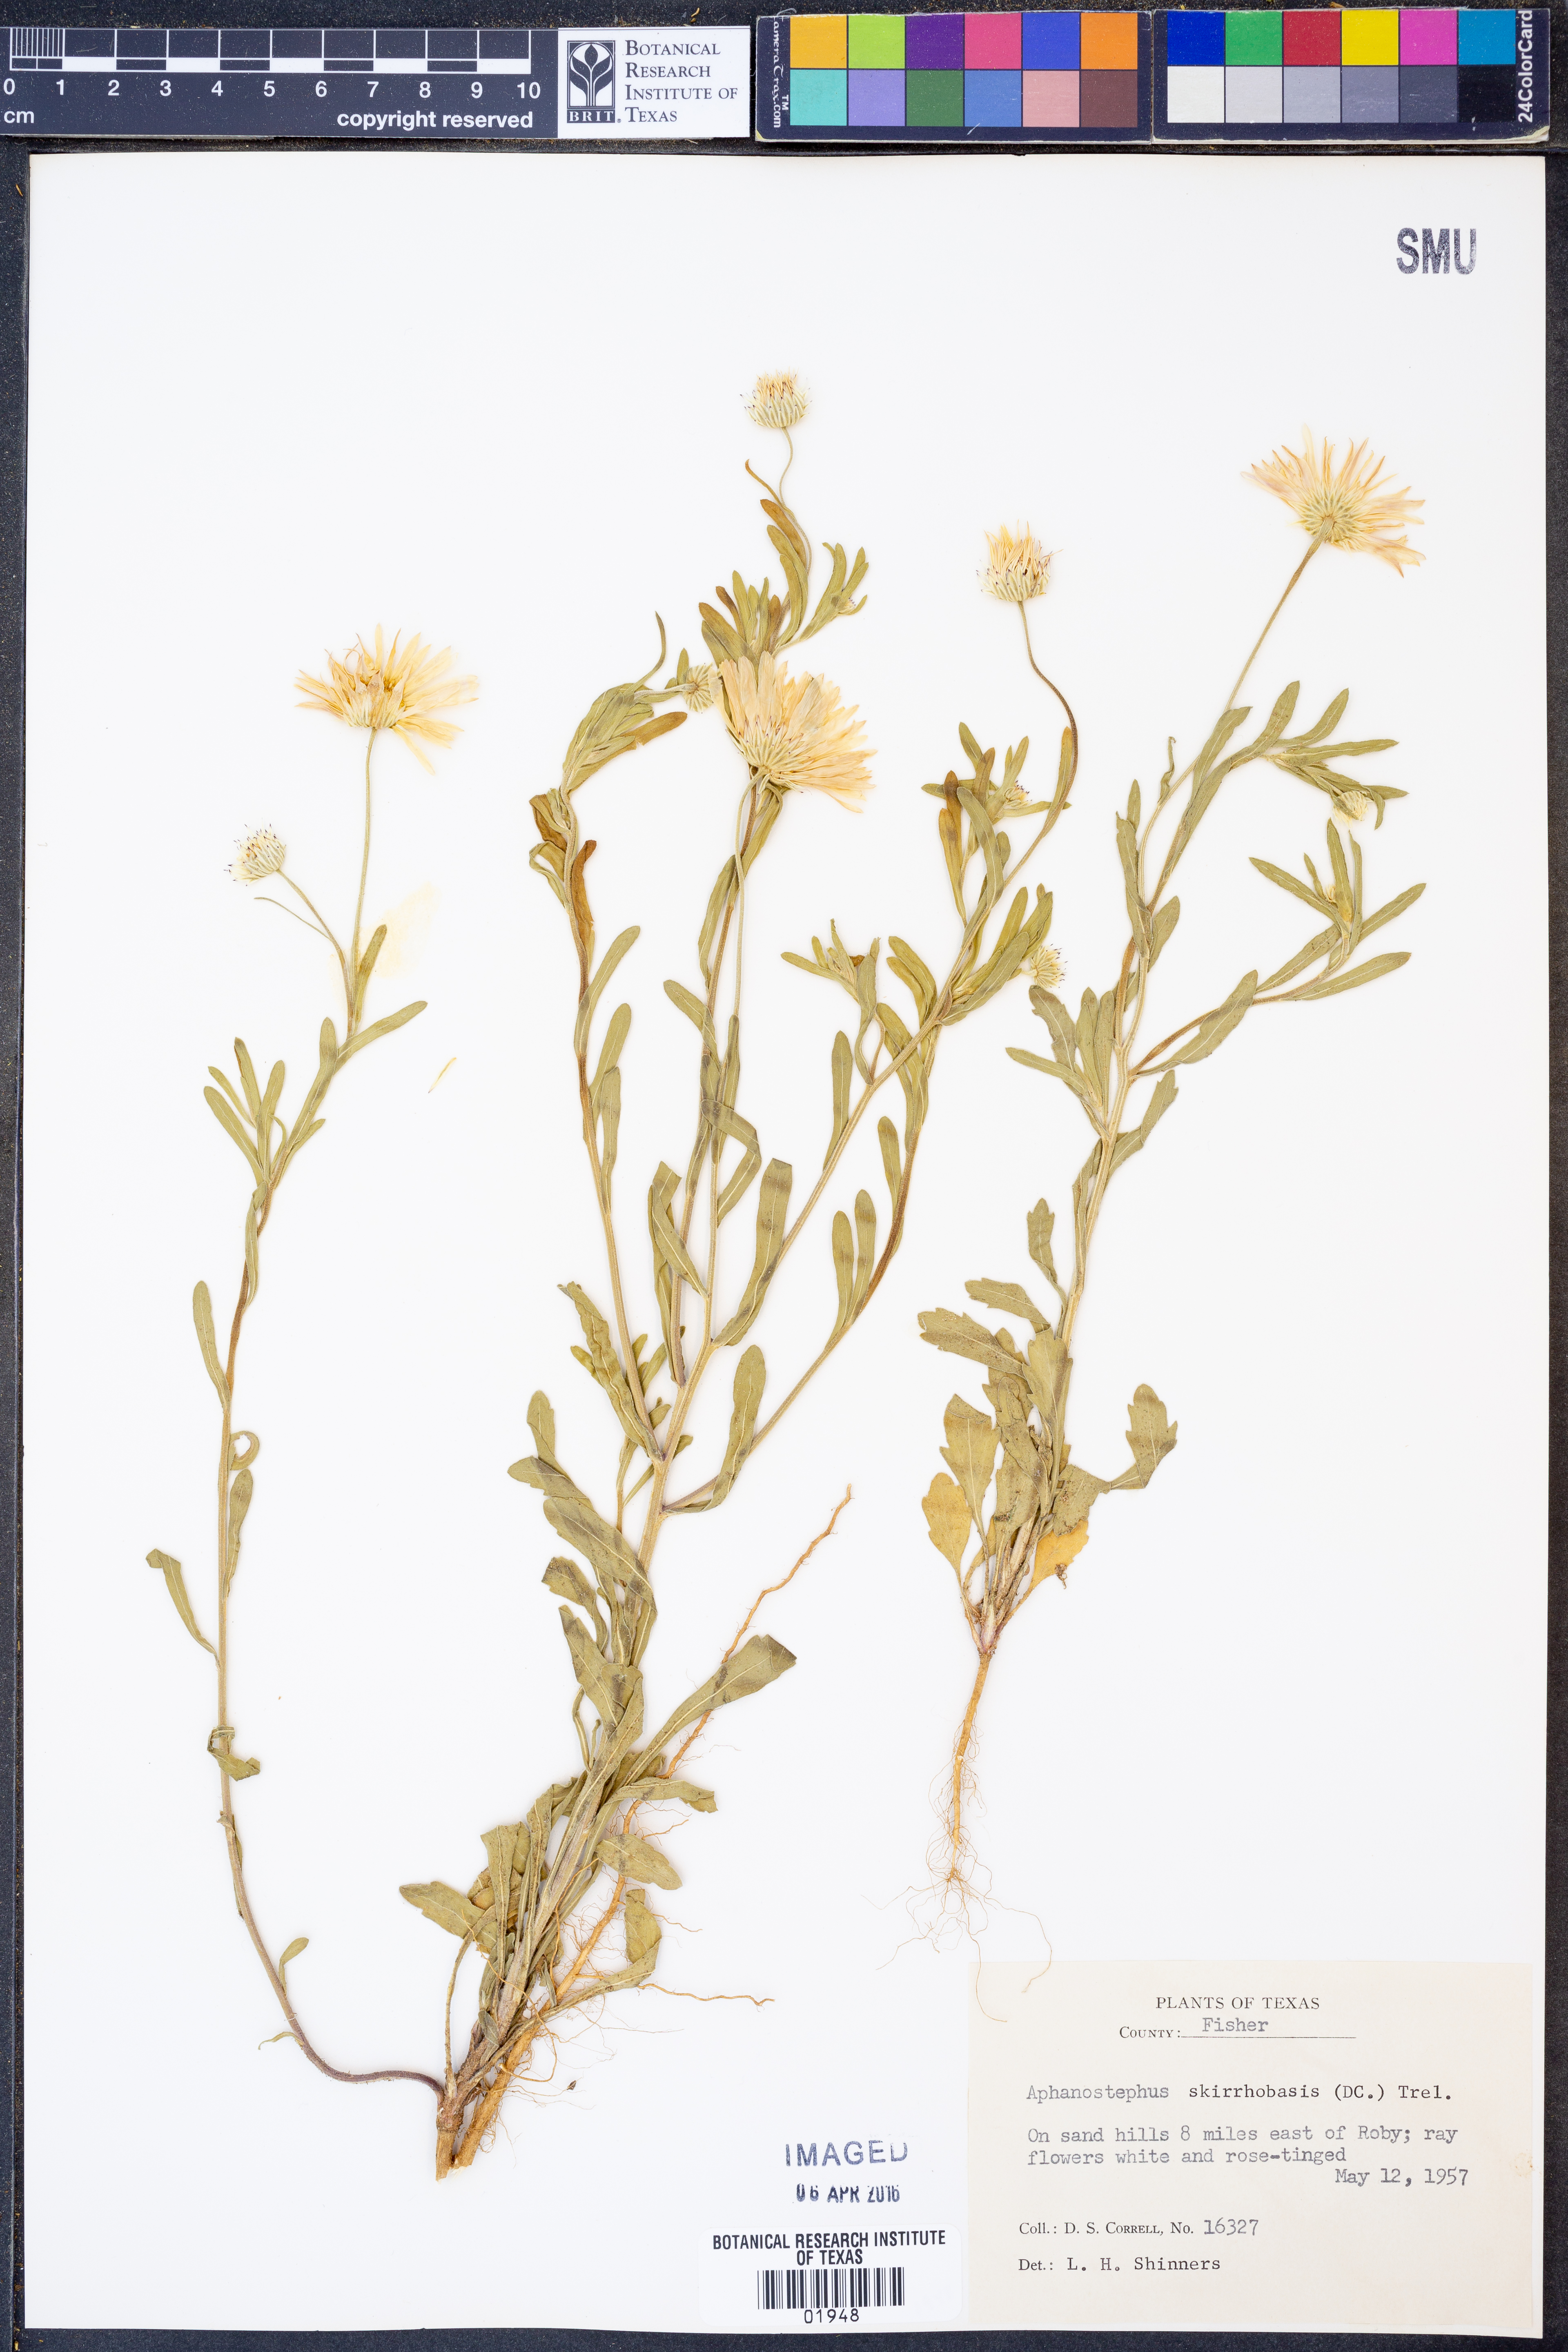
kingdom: Plantae
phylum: Tracheophyta
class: Magnoliopsida
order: Asterales
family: Asteraceae
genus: Aphanostephus
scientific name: Aphanostephus skirrhobasis
